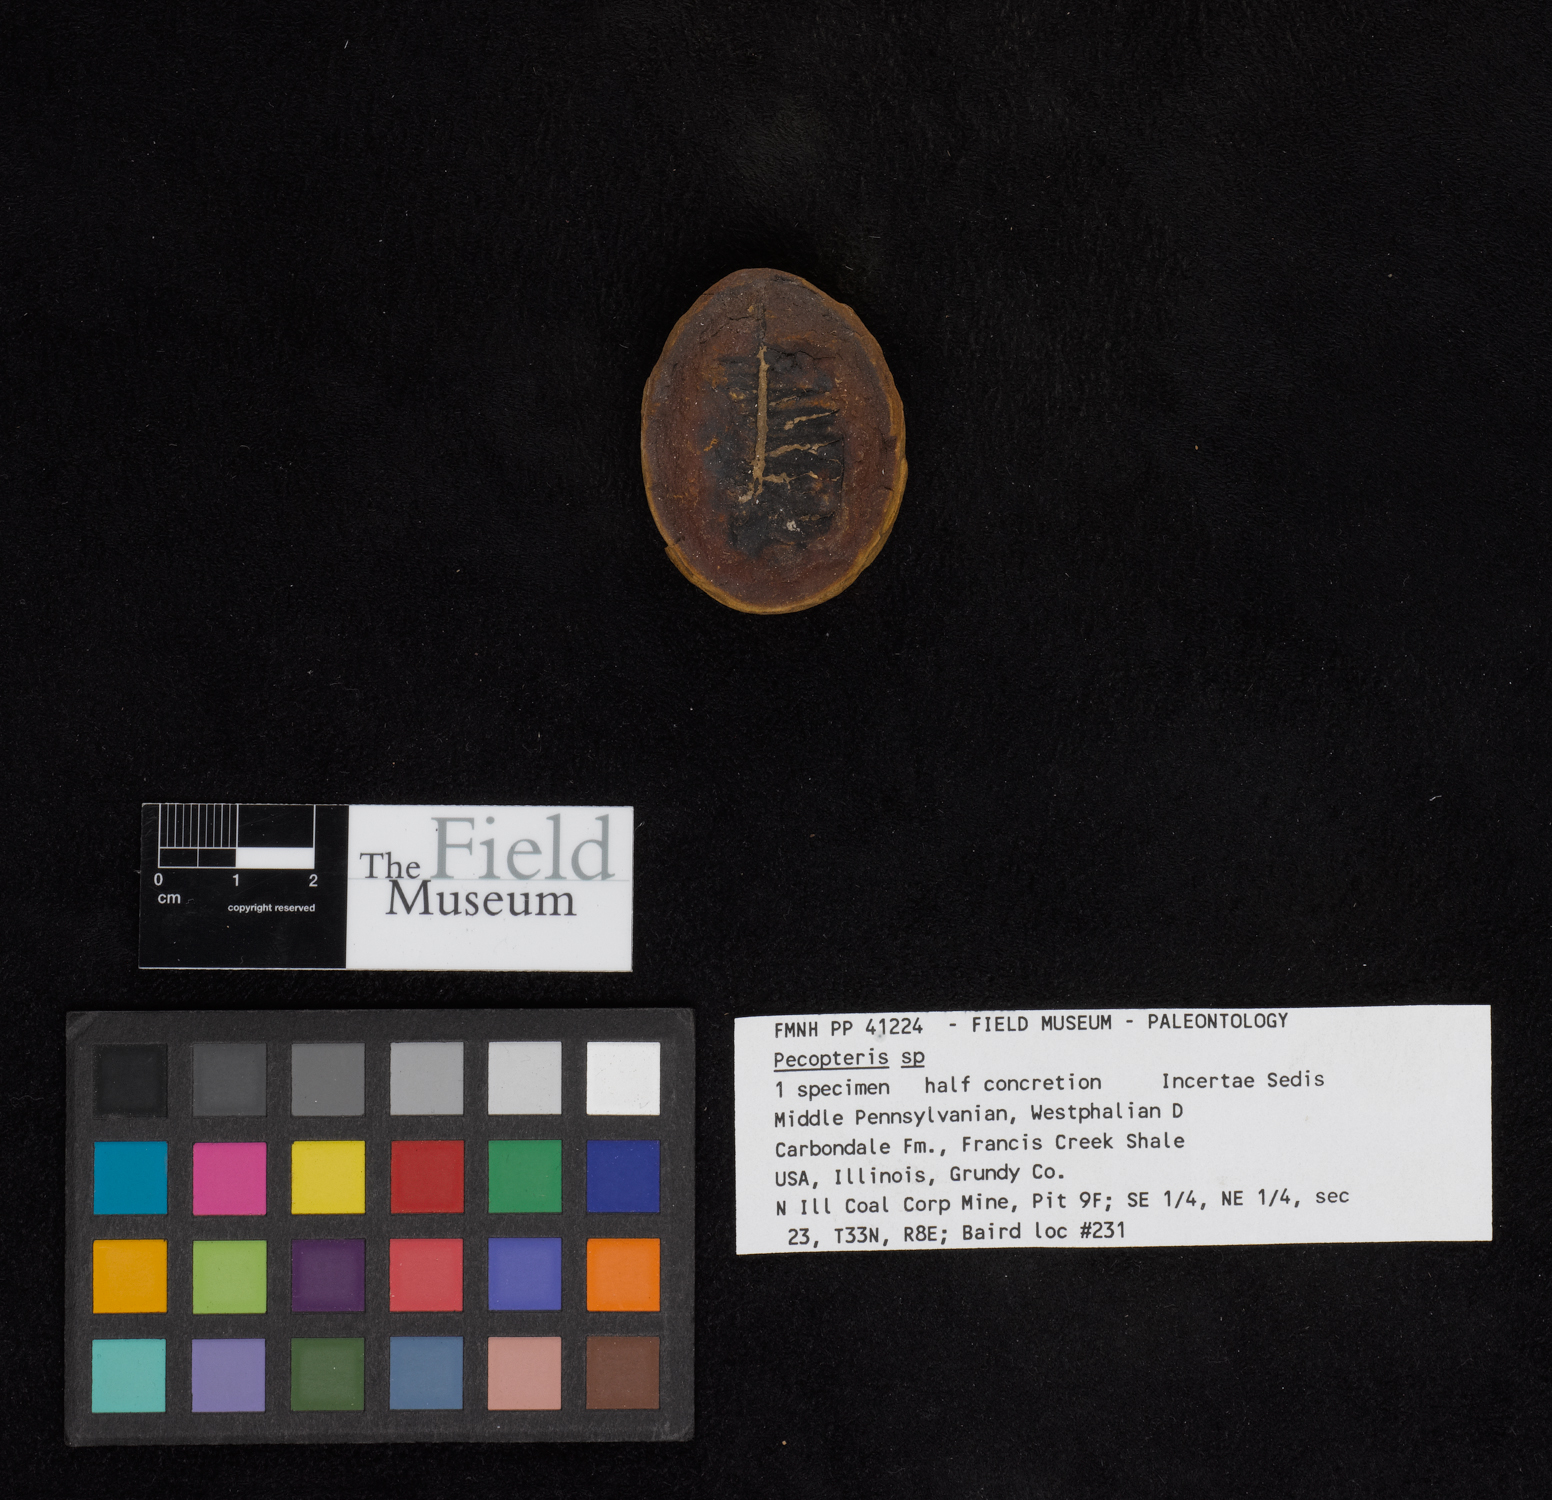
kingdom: Plantae
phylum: Tracheophyta
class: Polypodiopsida
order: Marattiales
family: Asterothecaceae
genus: Pecopteris
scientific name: Pecopteris
